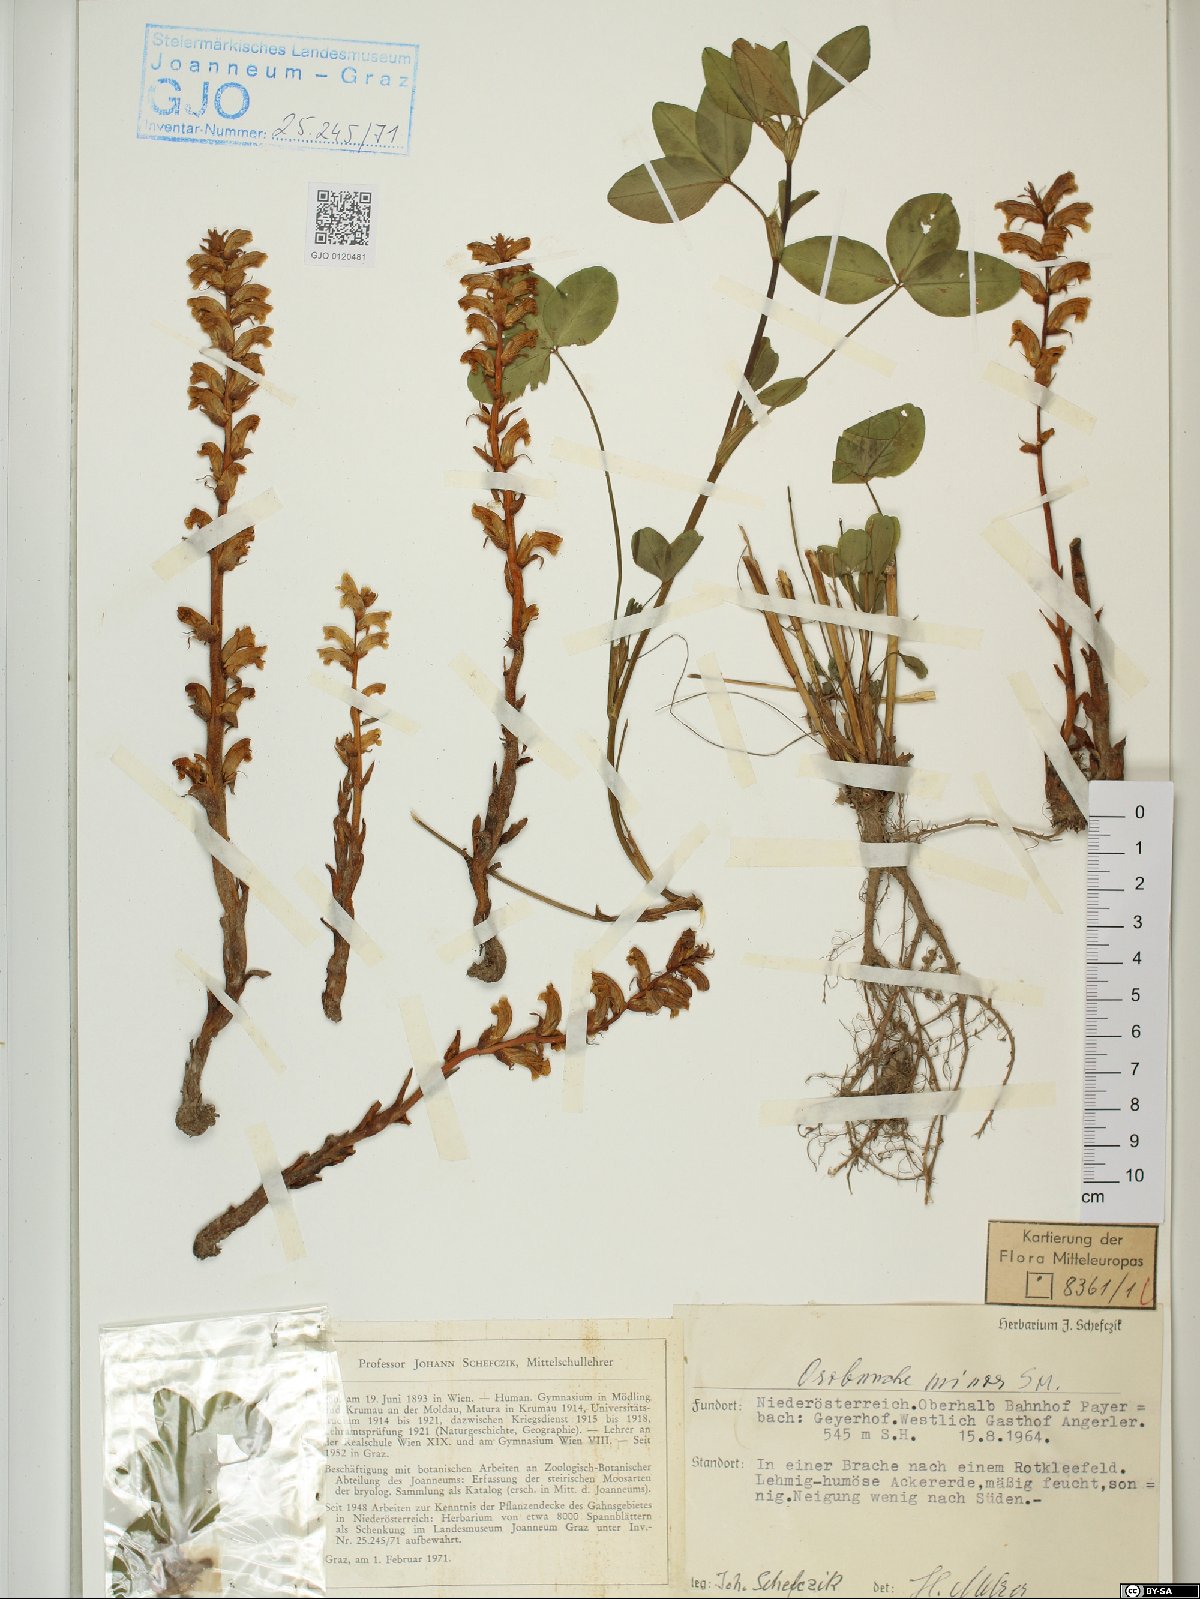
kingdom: Plantae
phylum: Tracheophyta
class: Magnoliopsida
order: Lamiales
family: Orobanchaceae
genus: Orobanche
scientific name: Orobanche minor
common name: Common broomrape
